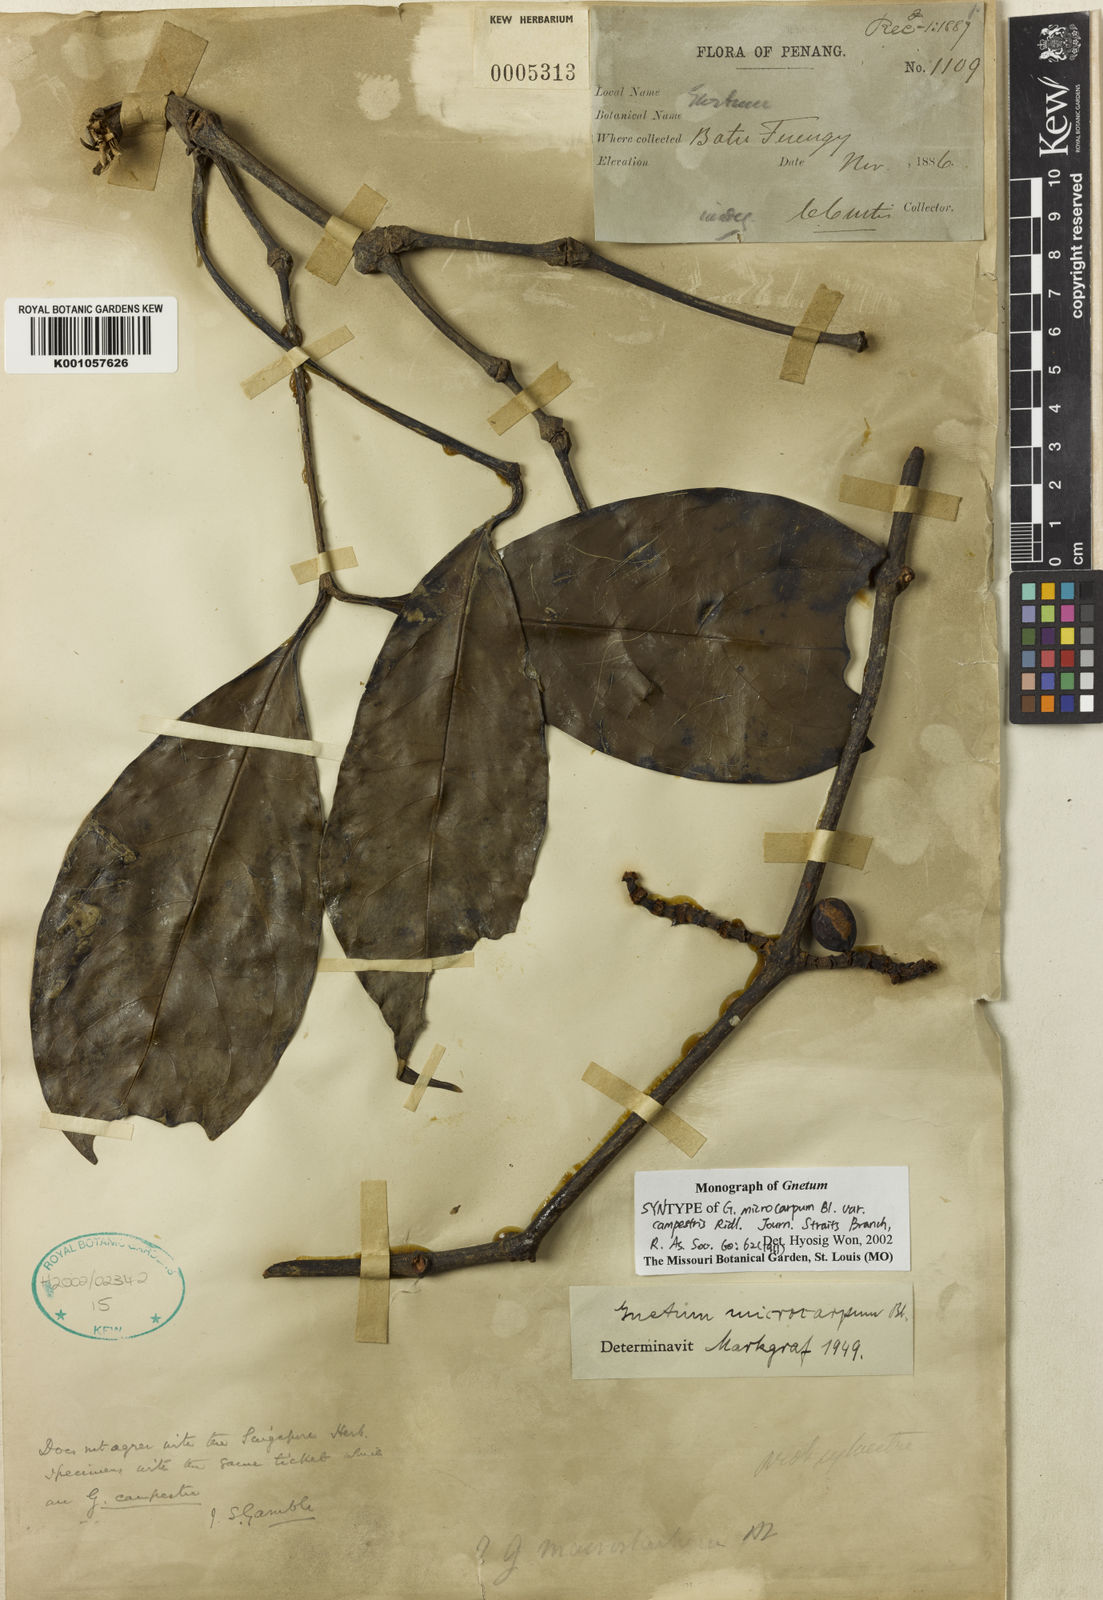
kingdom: Plantae
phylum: Tracheophyta
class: Gnetopsida
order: Gnetales
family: Gnetaceae
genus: Gnetum
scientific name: Gnetum microcarpum
